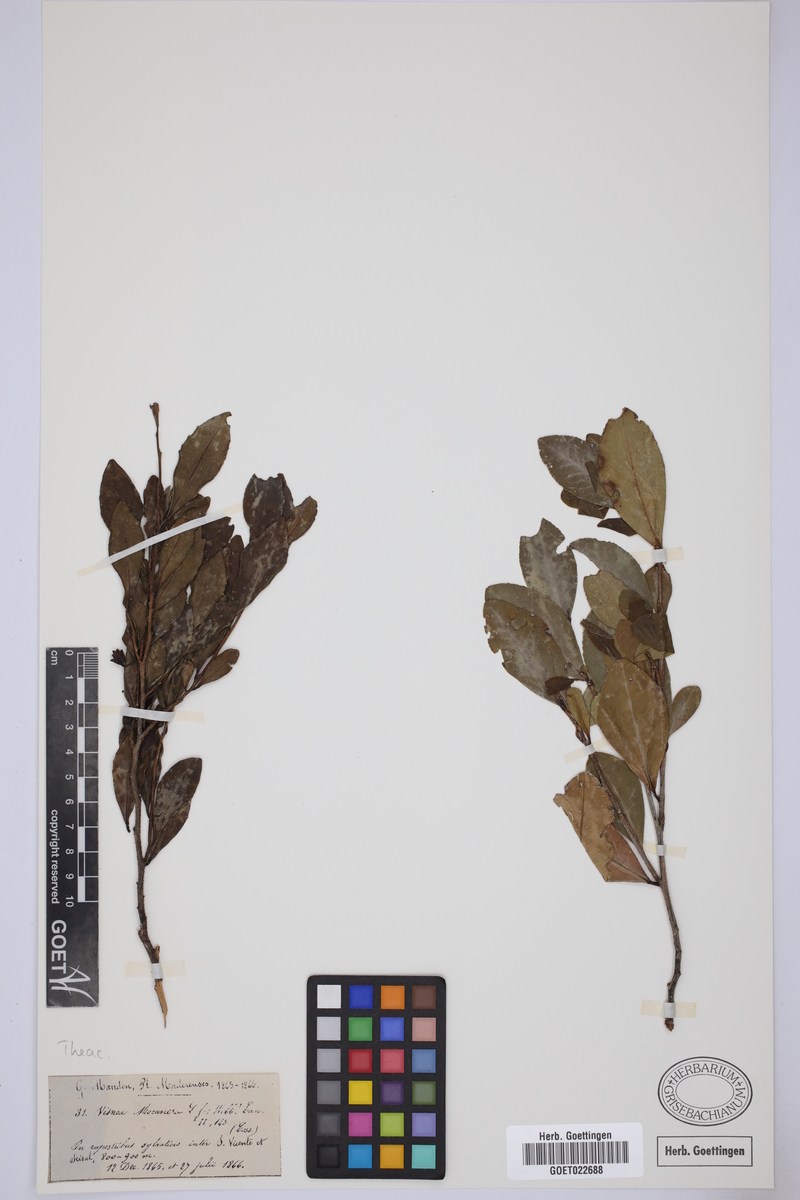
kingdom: Plantae
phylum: Tracheophyta
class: Magnoliopsida
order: Ericales
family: Pentaphylacaceae
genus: Visnea
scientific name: Visnea mocanera
